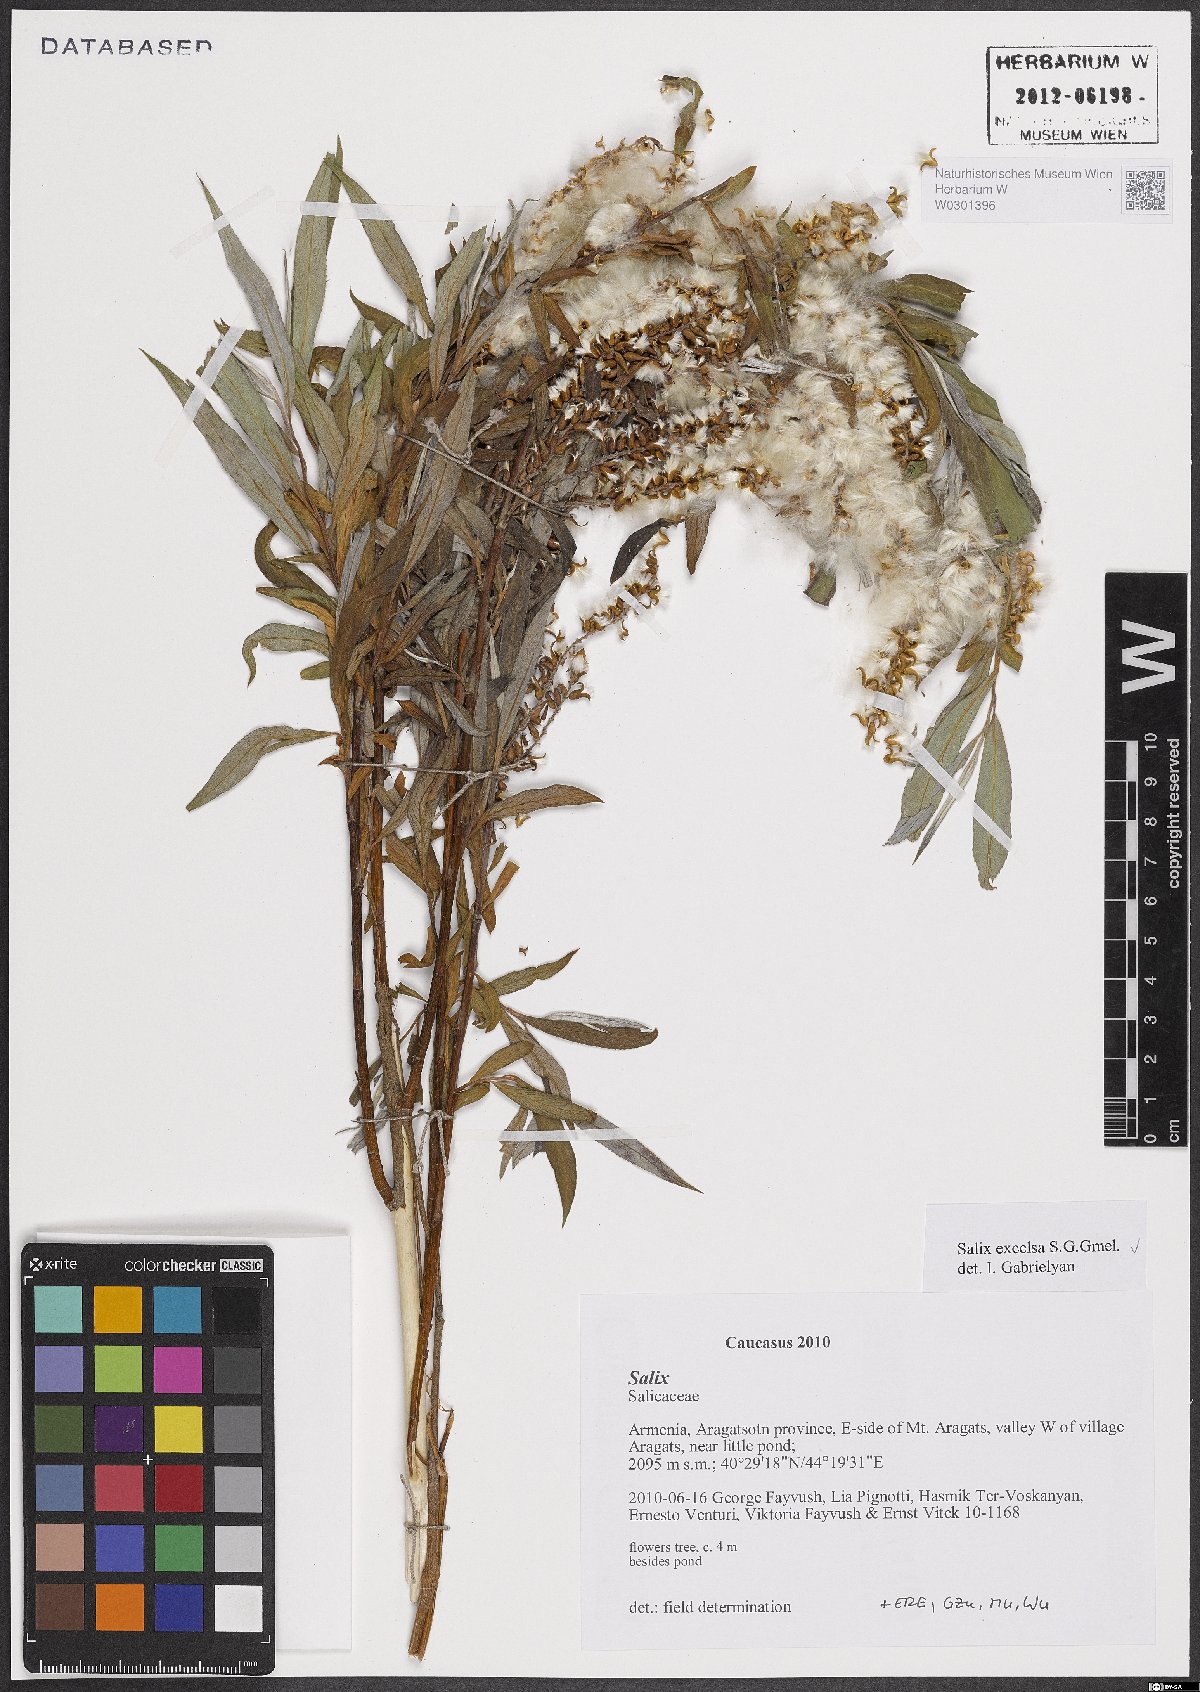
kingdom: Plantae
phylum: Tracheophyta
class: Magnoliopsida
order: Malpighiales
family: Salicaceae
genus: Salix
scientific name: Salix excelsa
